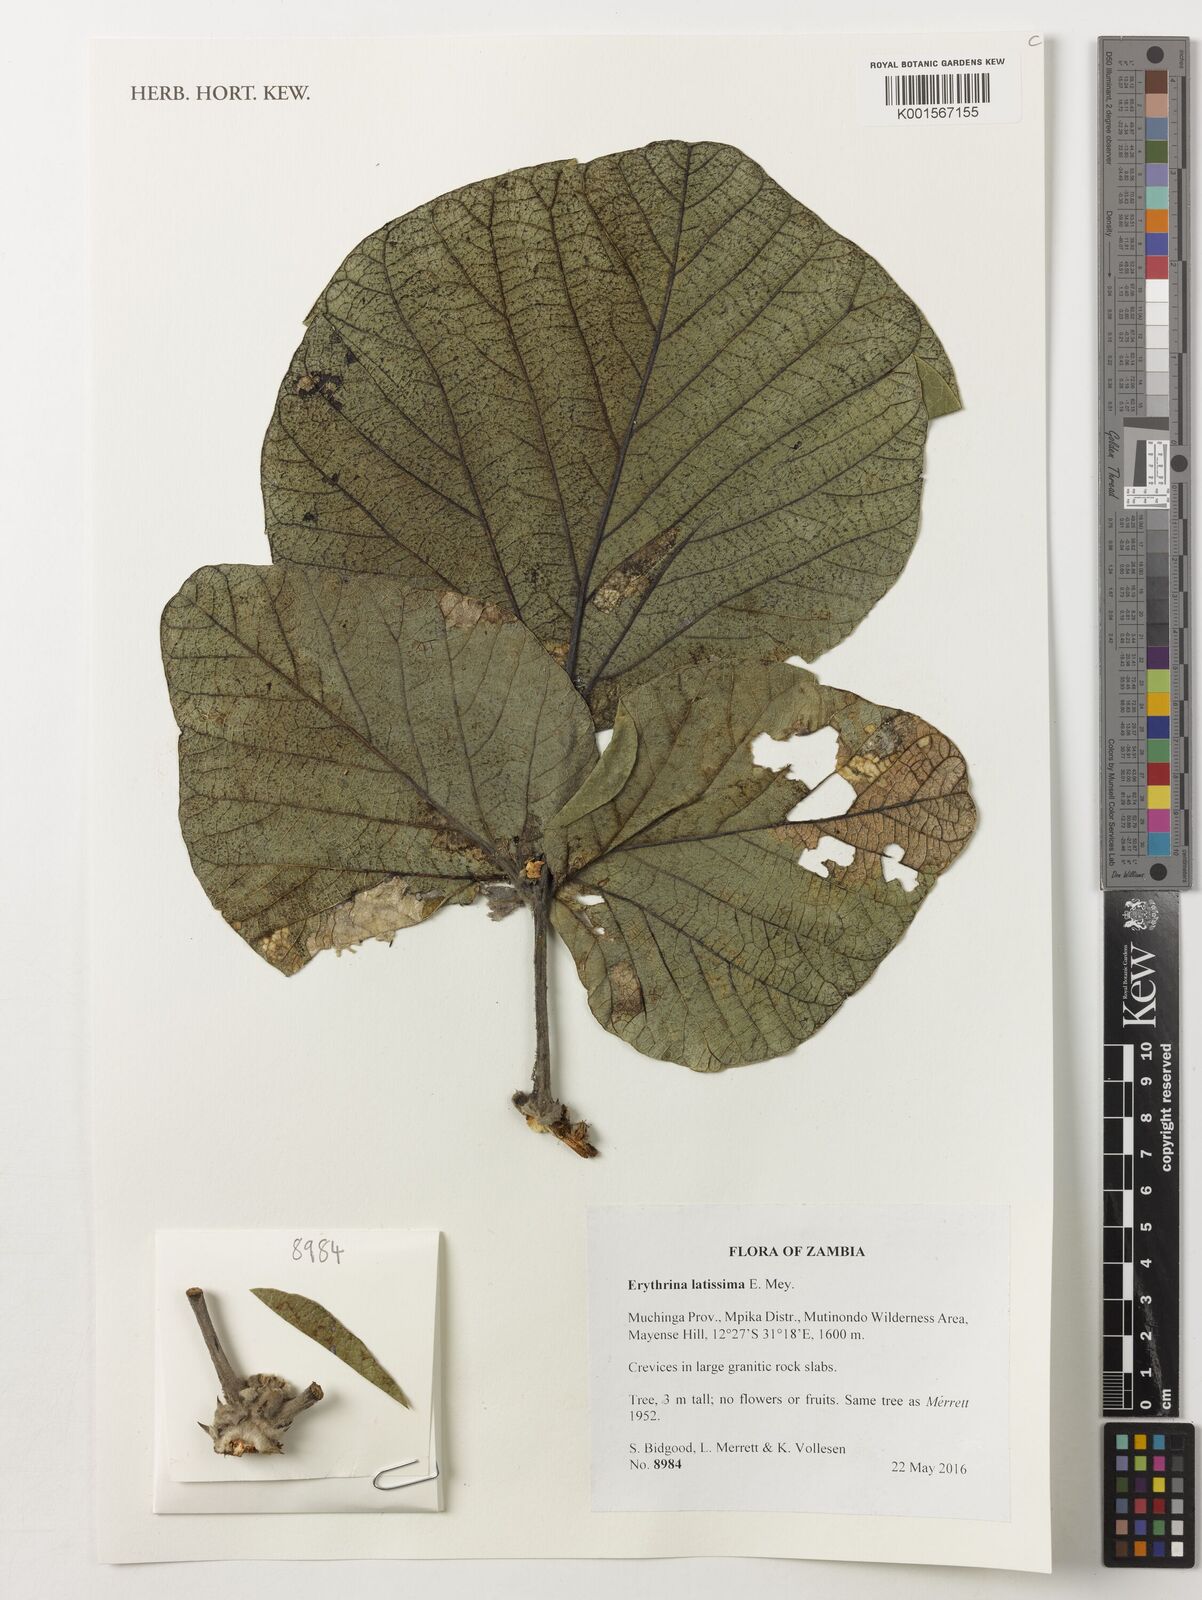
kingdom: Plantae
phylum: Tracheophyta
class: Magnoliopsida
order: Fabales
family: Fabaceae
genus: Erythrina
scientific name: Erythrina latissima
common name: Broad-leaved coral tree
